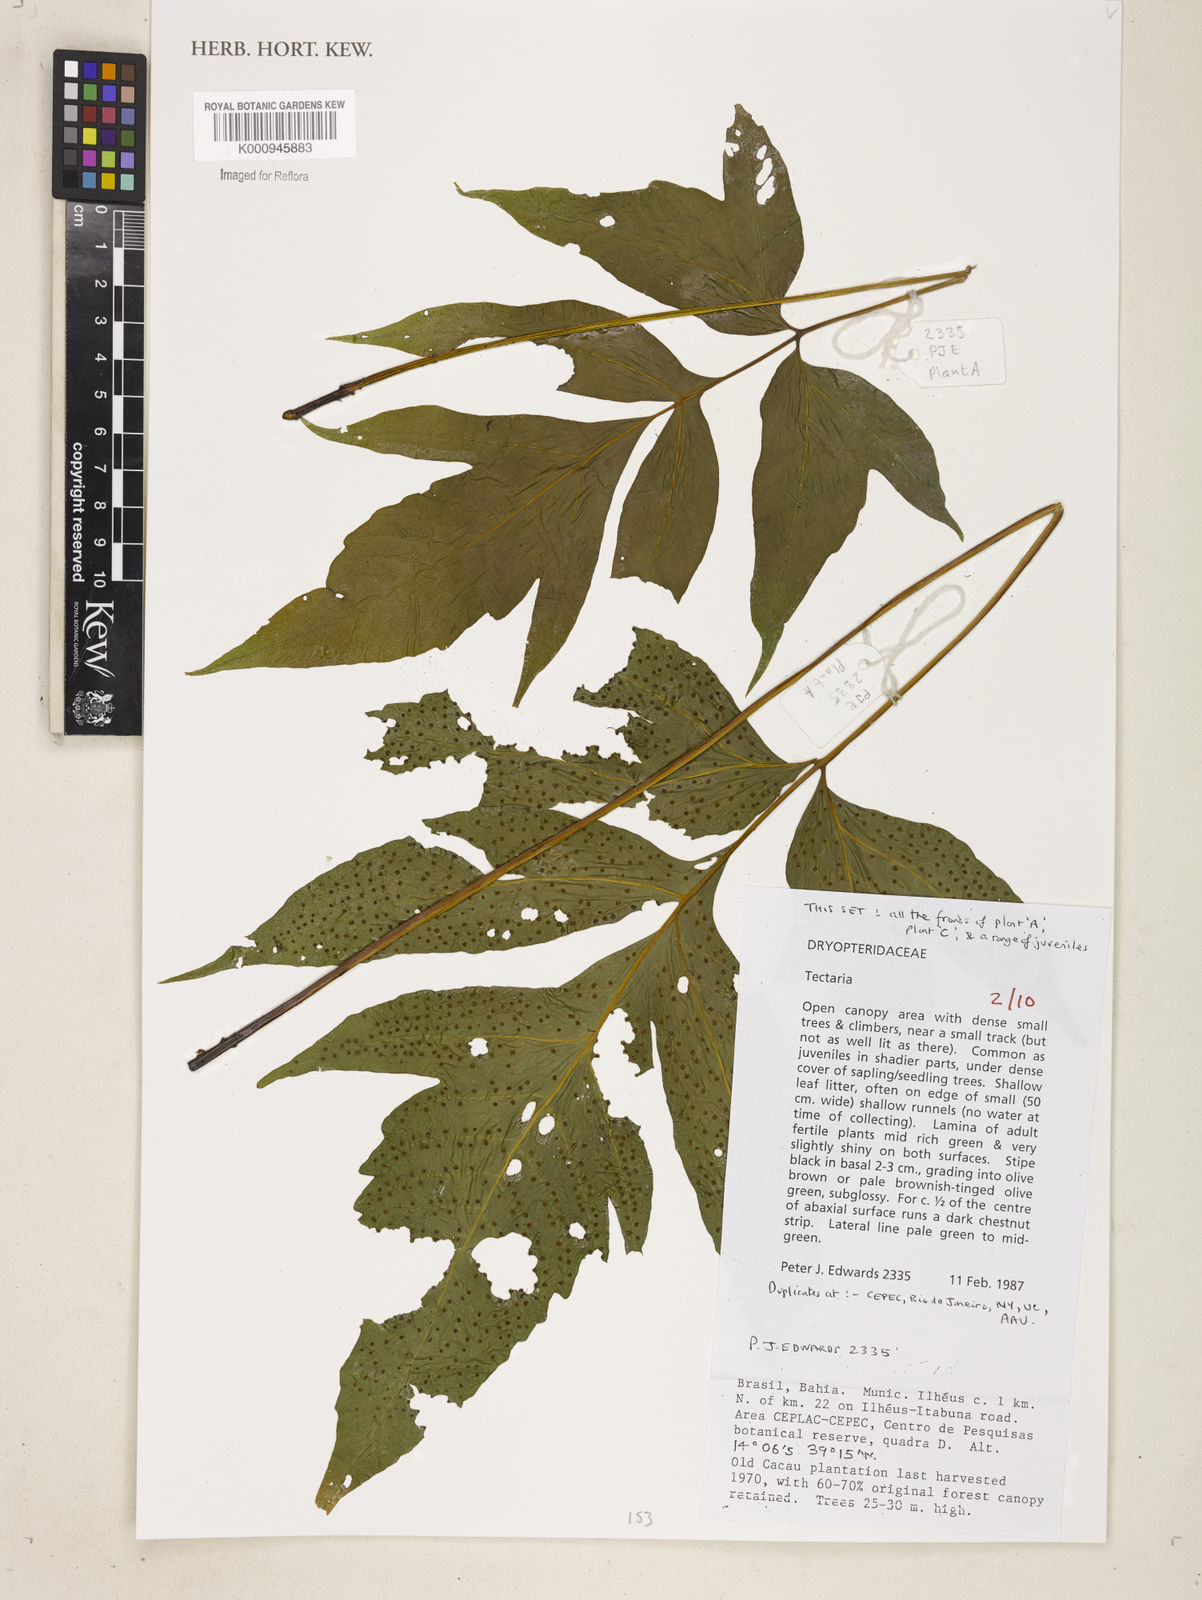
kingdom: Plantae
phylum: Tracheophyta
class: Polypodiopsida
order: Polypodiales
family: Tectariaceae
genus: Tectaria
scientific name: Tectaria
